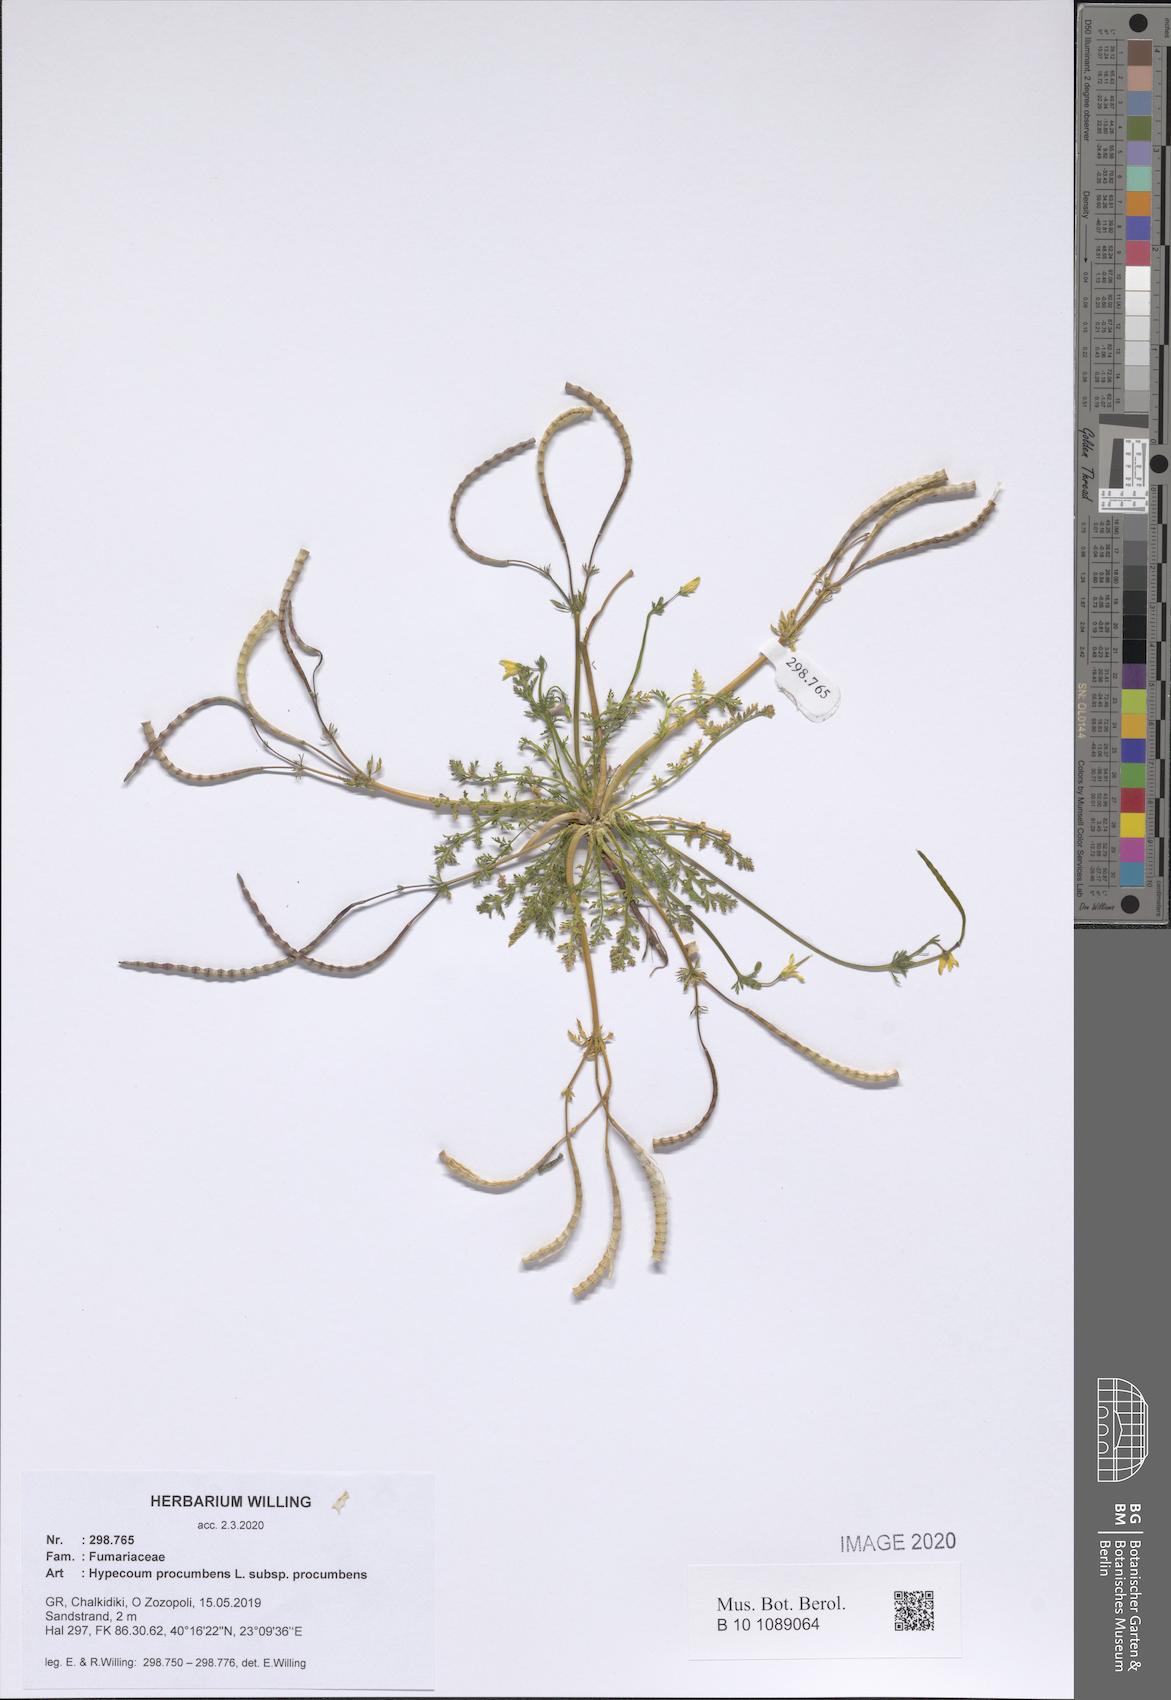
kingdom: Plantae
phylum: Tracheophyta
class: Magnoliopsida
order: Ranunculales
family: Papaveraceae
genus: Hypecoum
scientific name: Hypecoum procumbens
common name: Procumbent hypecoum
